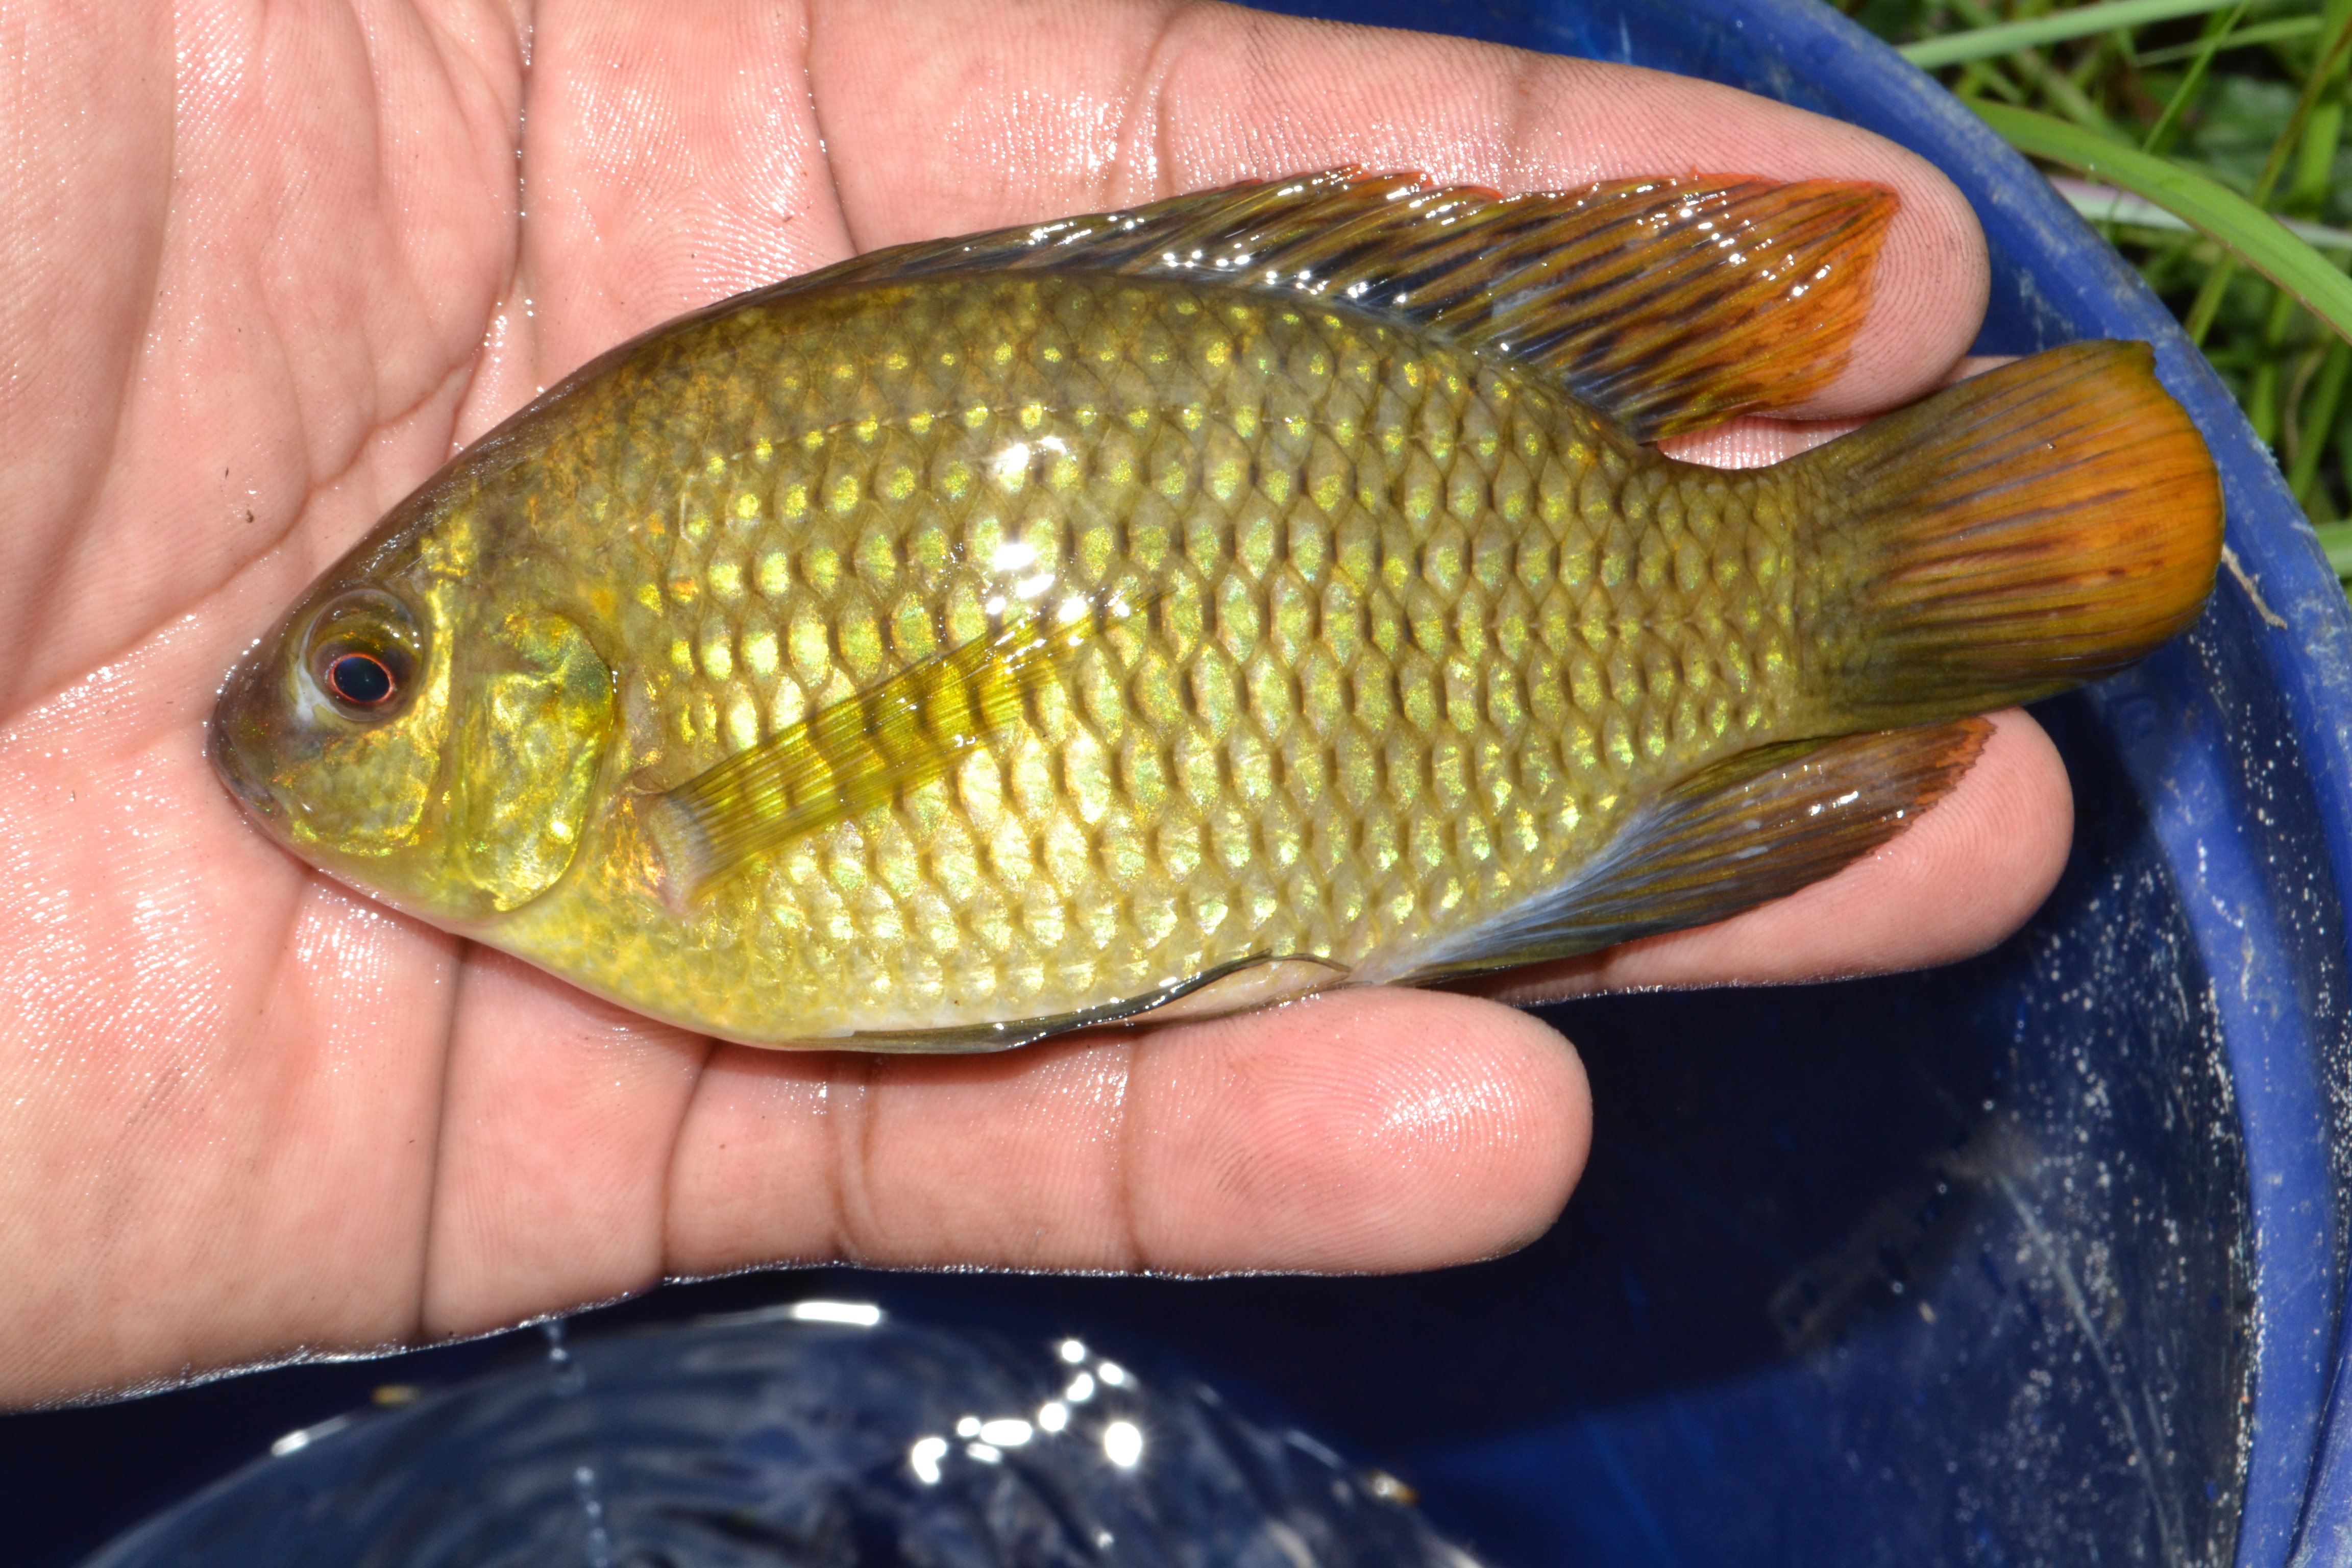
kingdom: Animalia
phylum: Chordata
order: Perciformes
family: Cichlidae
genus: Tilapia
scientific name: Tilapia sparrmanii
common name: Banded tilapia
